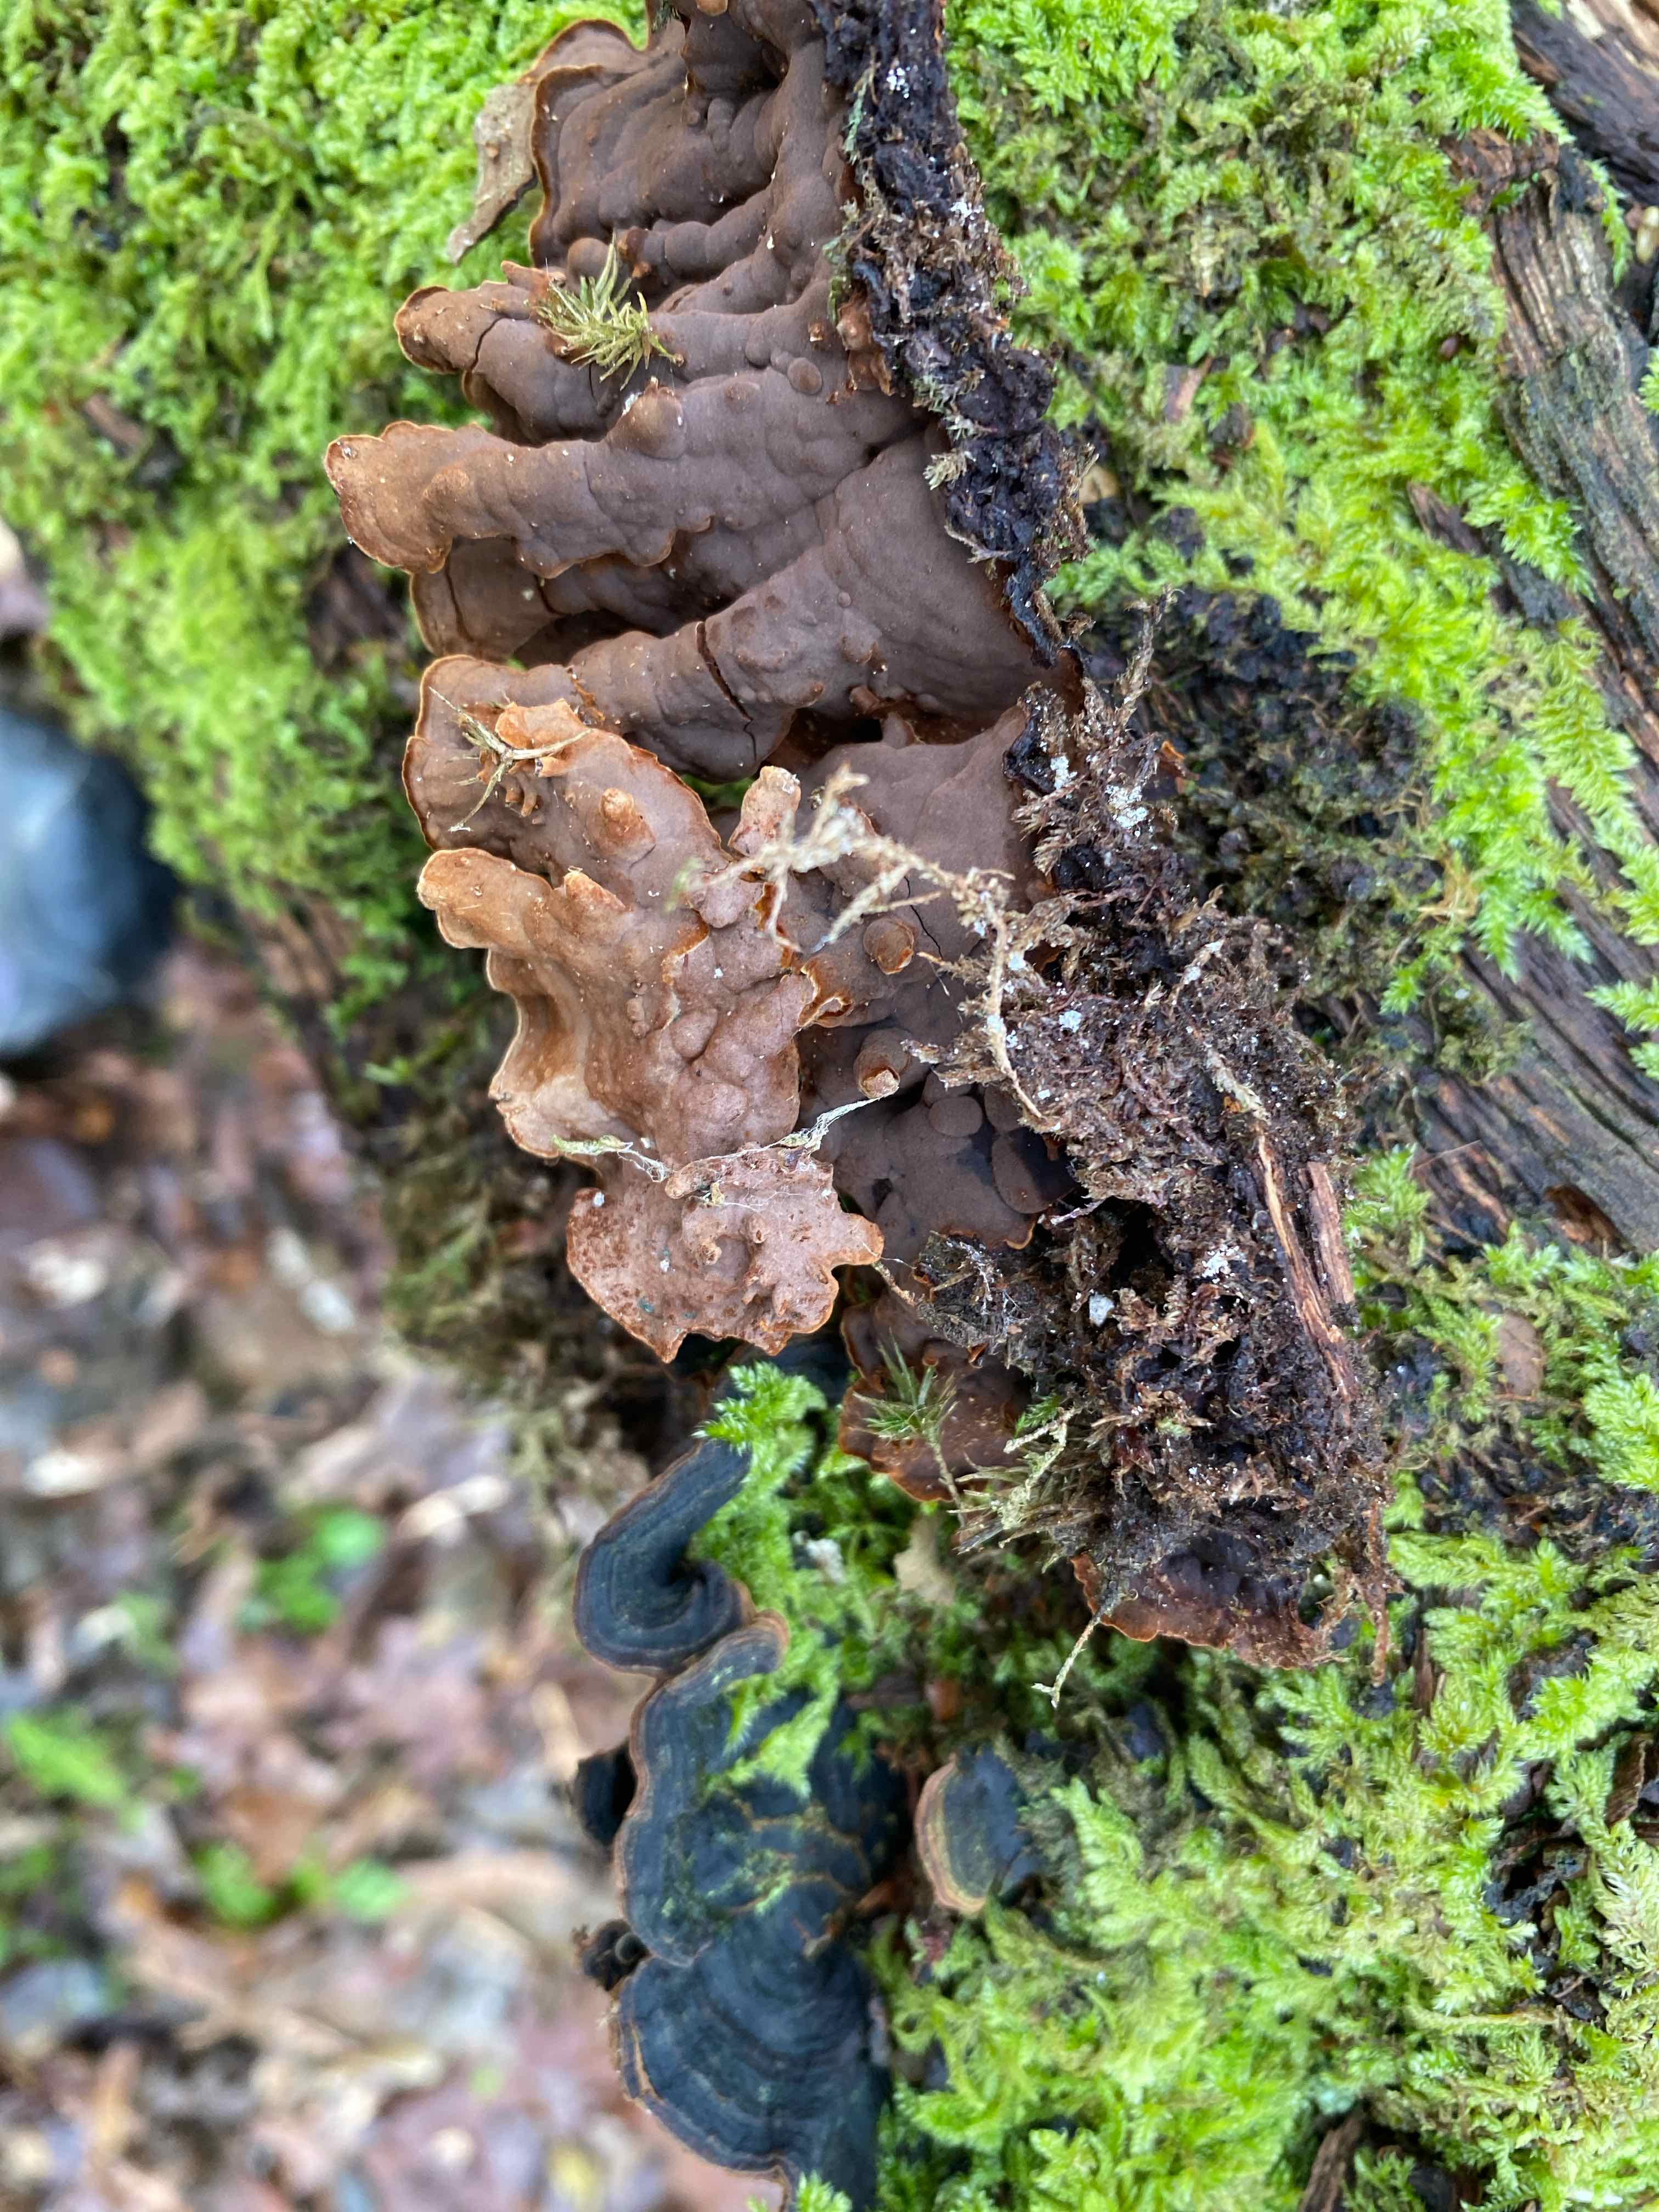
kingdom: Fungi
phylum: Basidiomycota
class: Agaricomycetes
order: Hymenochaetales
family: Hymenochaetaceae
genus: Hymenochaete
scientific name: Hymenochaete rubiginosa
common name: stiv ruslædersvamp
